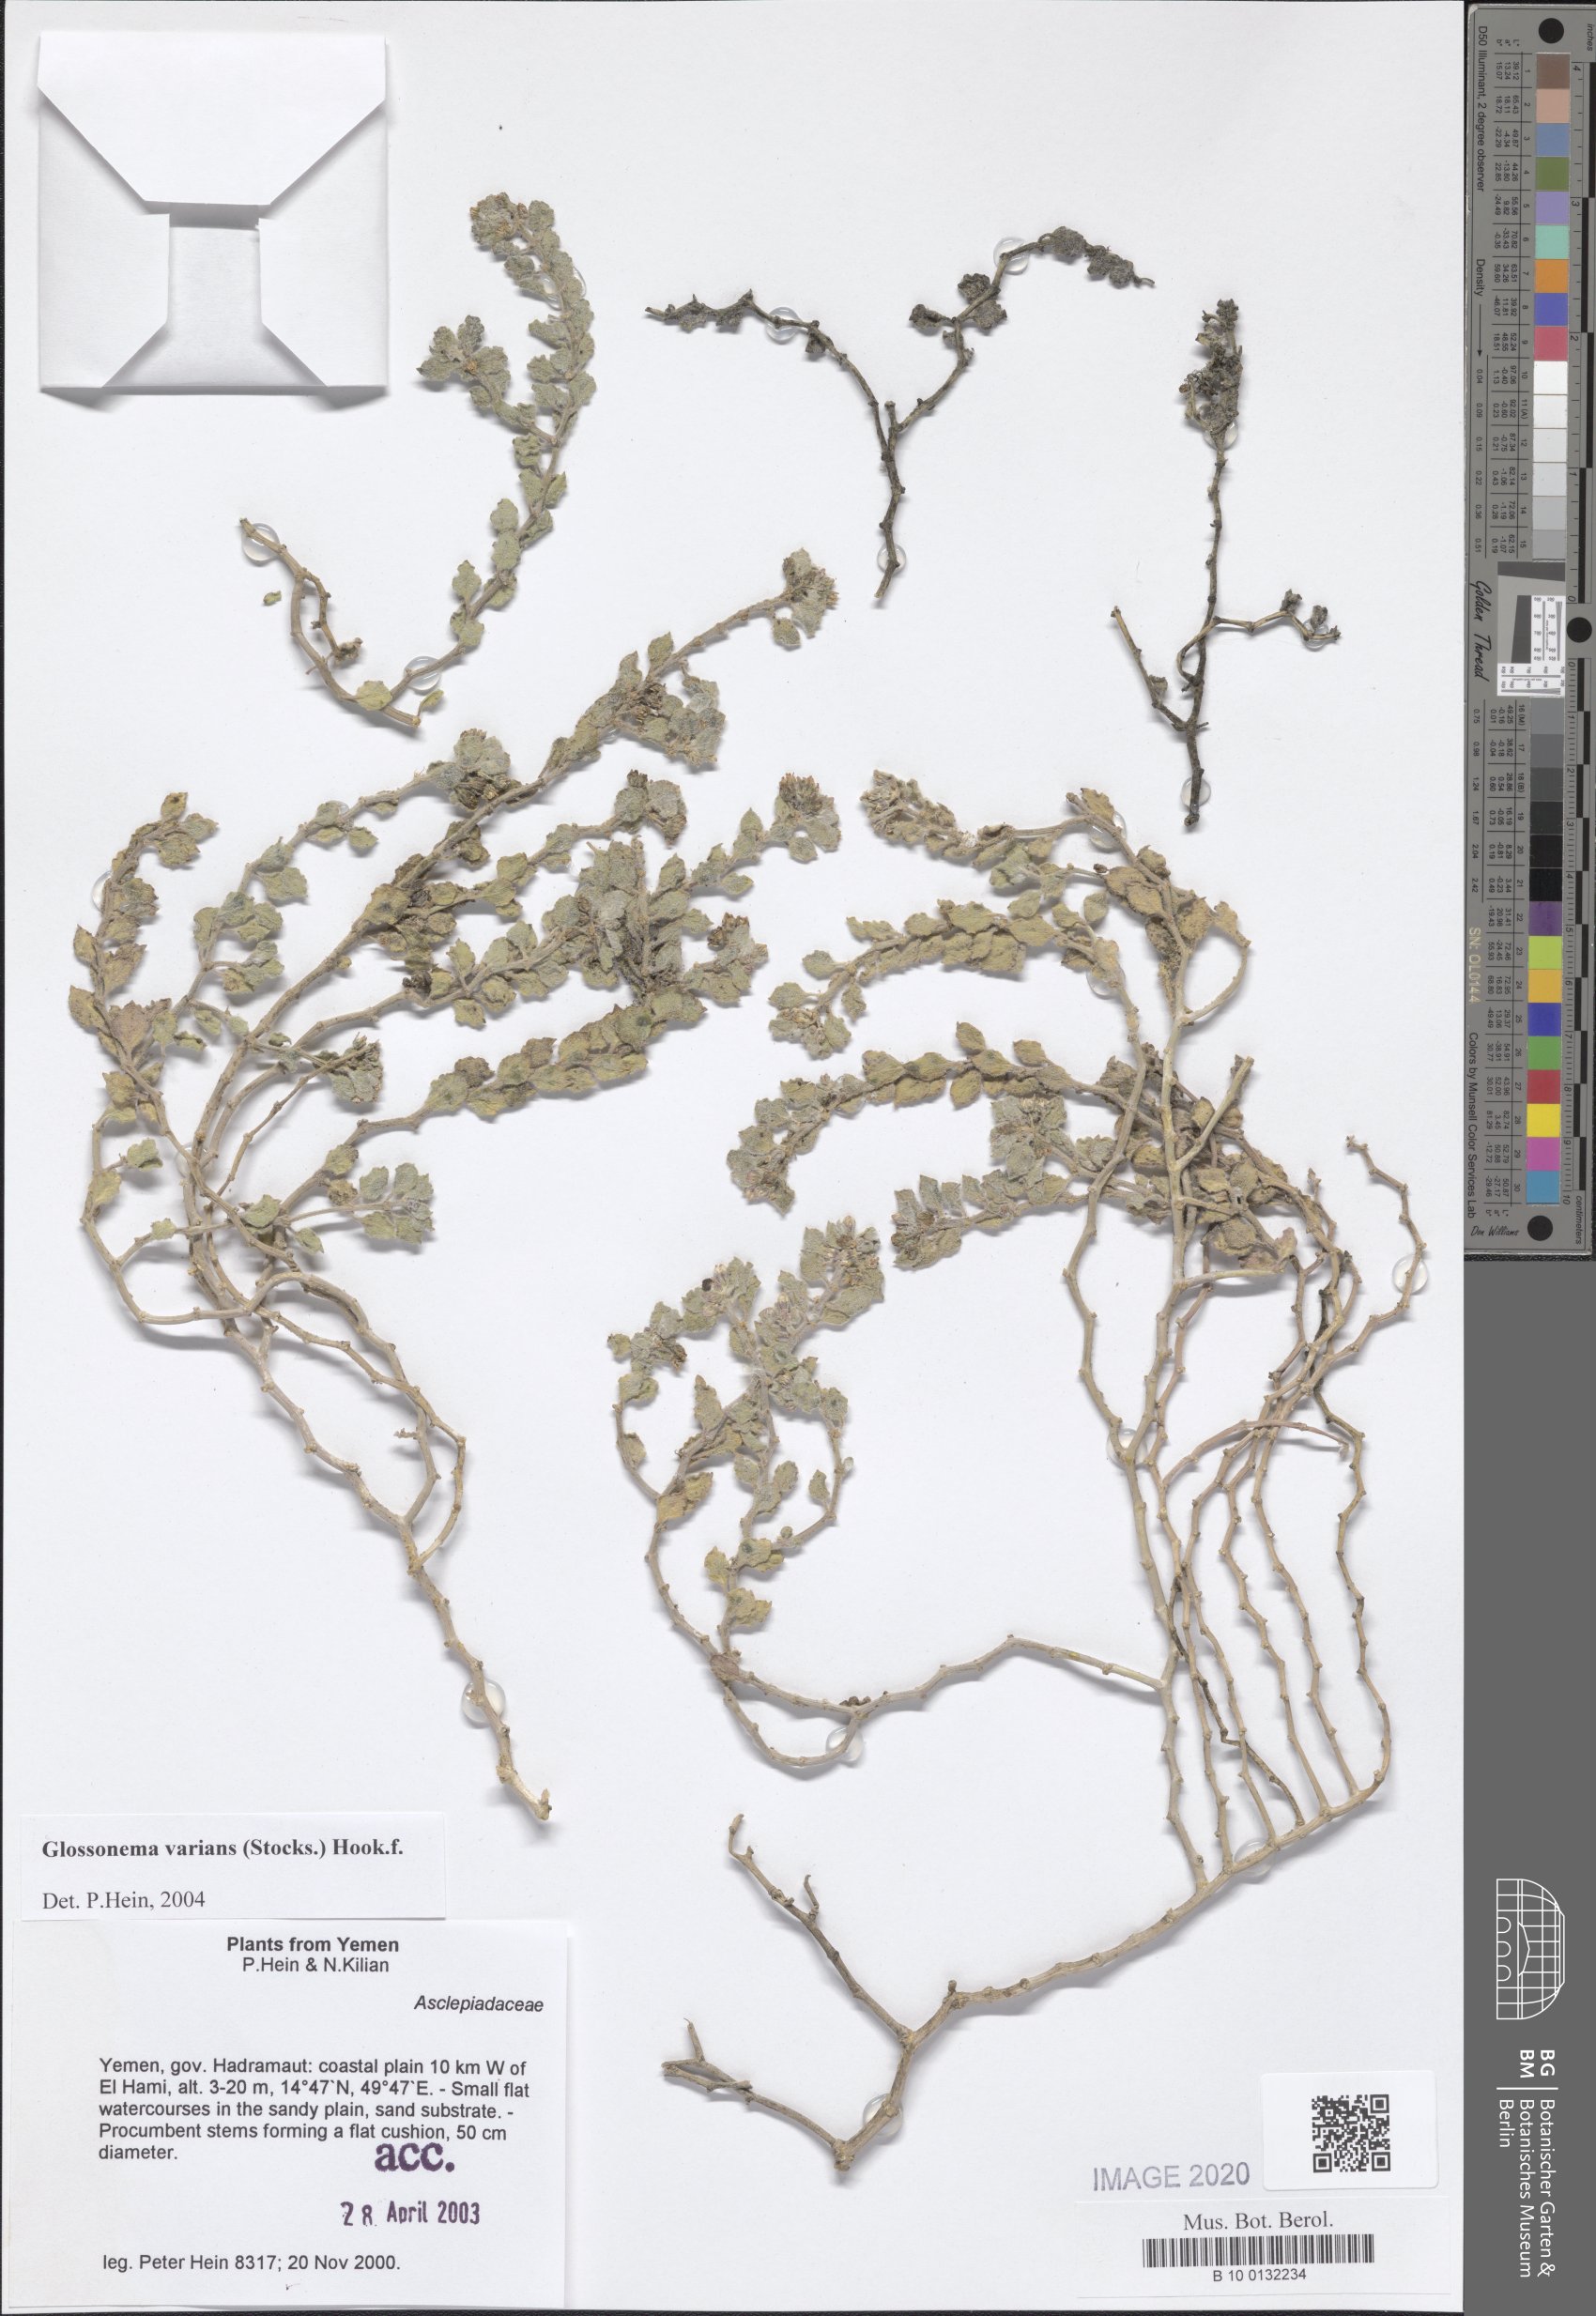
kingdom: Plantae
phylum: Tracheophyta
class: Magnoliopsida
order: Gentianales
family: Apocynaceae
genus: Cynanchum
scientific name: Cynanchum varians
